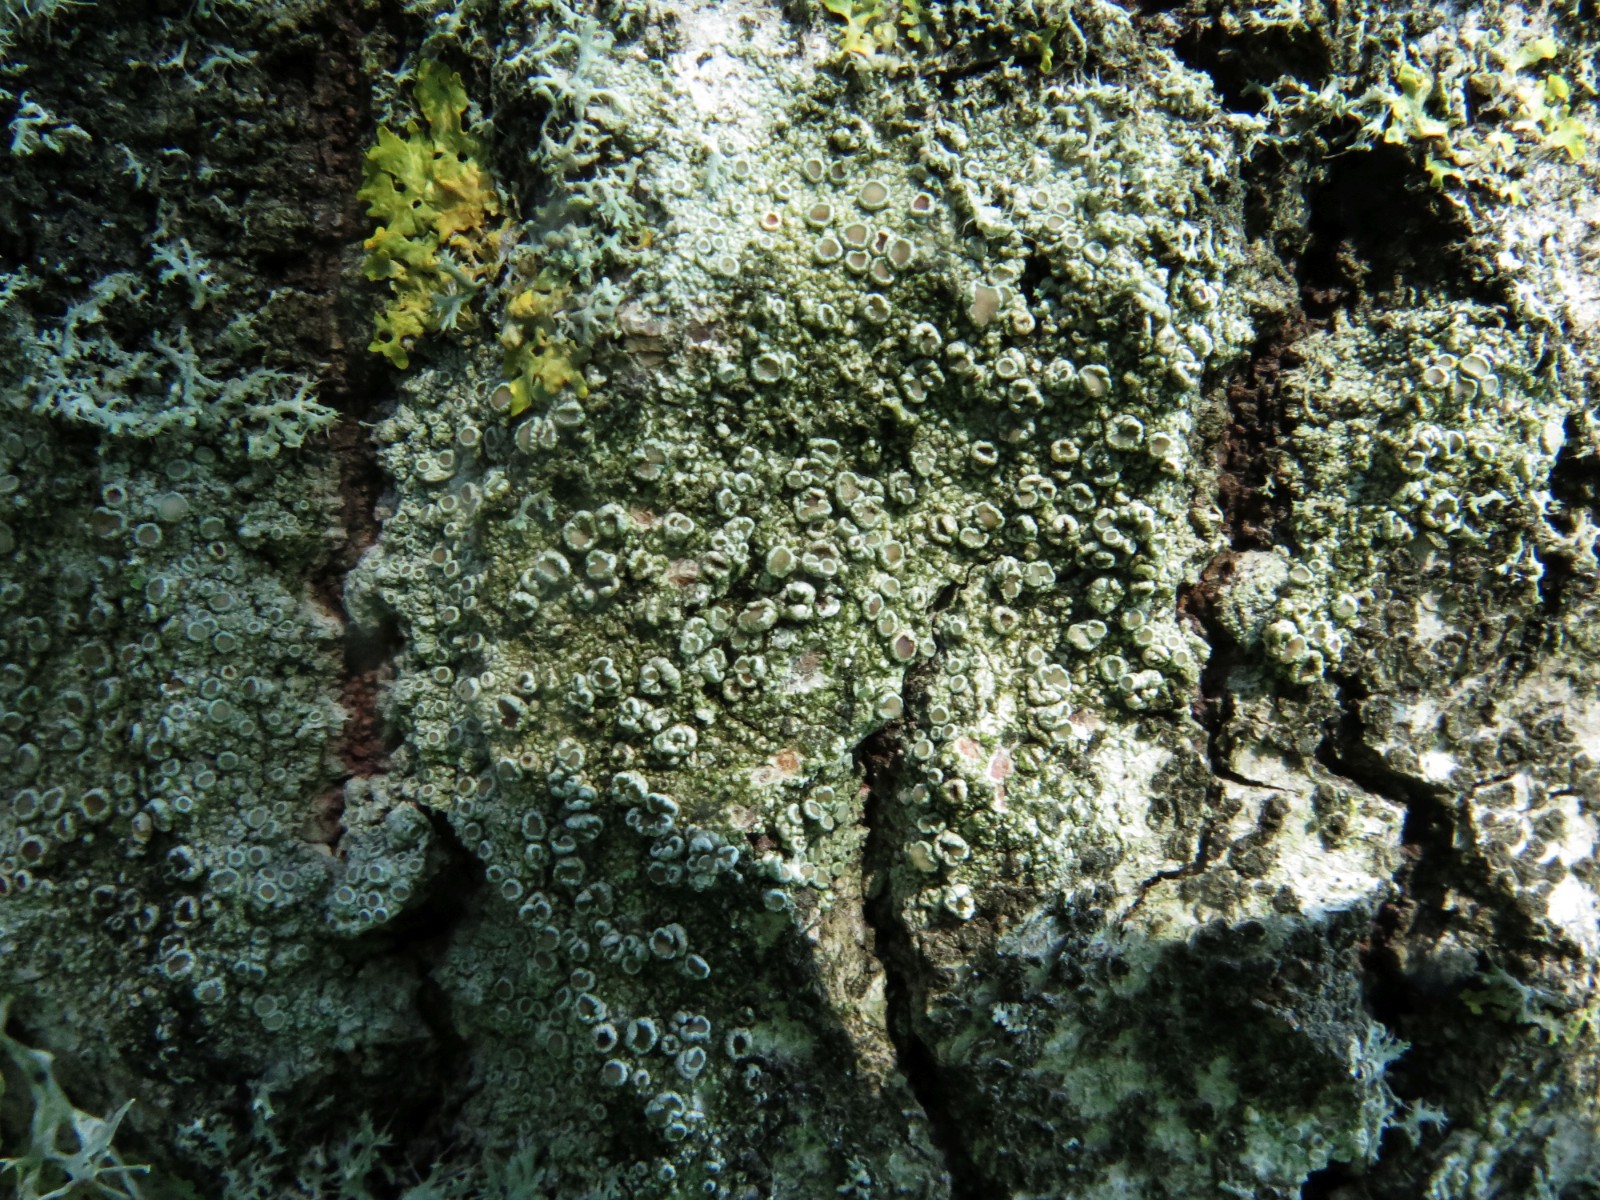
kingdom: Fungi
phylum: Ascomycota
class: Lecanoromycetes
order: Lecanorales
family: Lecanoraceae
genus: Lecanora
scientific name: Lecanora chlarotera
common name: brun kantskivelav
